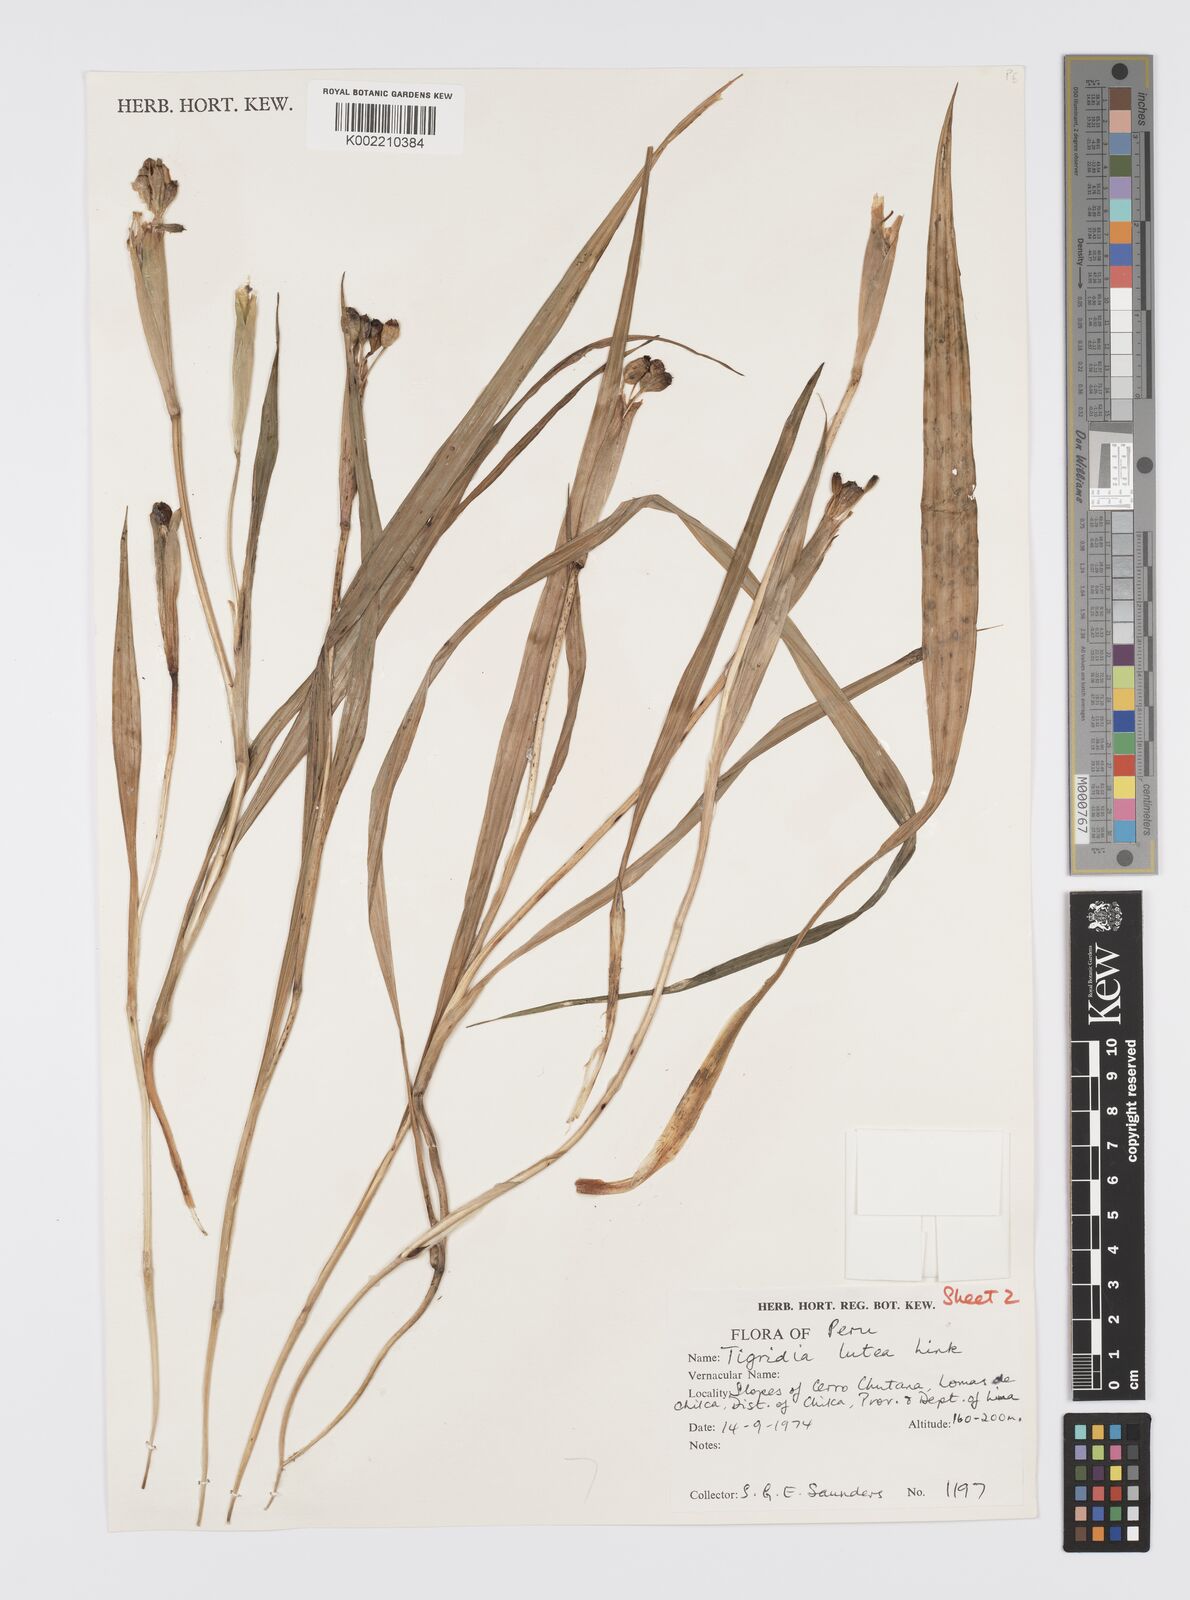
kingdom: Plantae
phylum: Tracheophyta
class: Liliopsida
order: Asparagales
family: Iridaceae
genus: Tigridia
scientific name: Tigridia pavonia
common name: Peacock-flower
